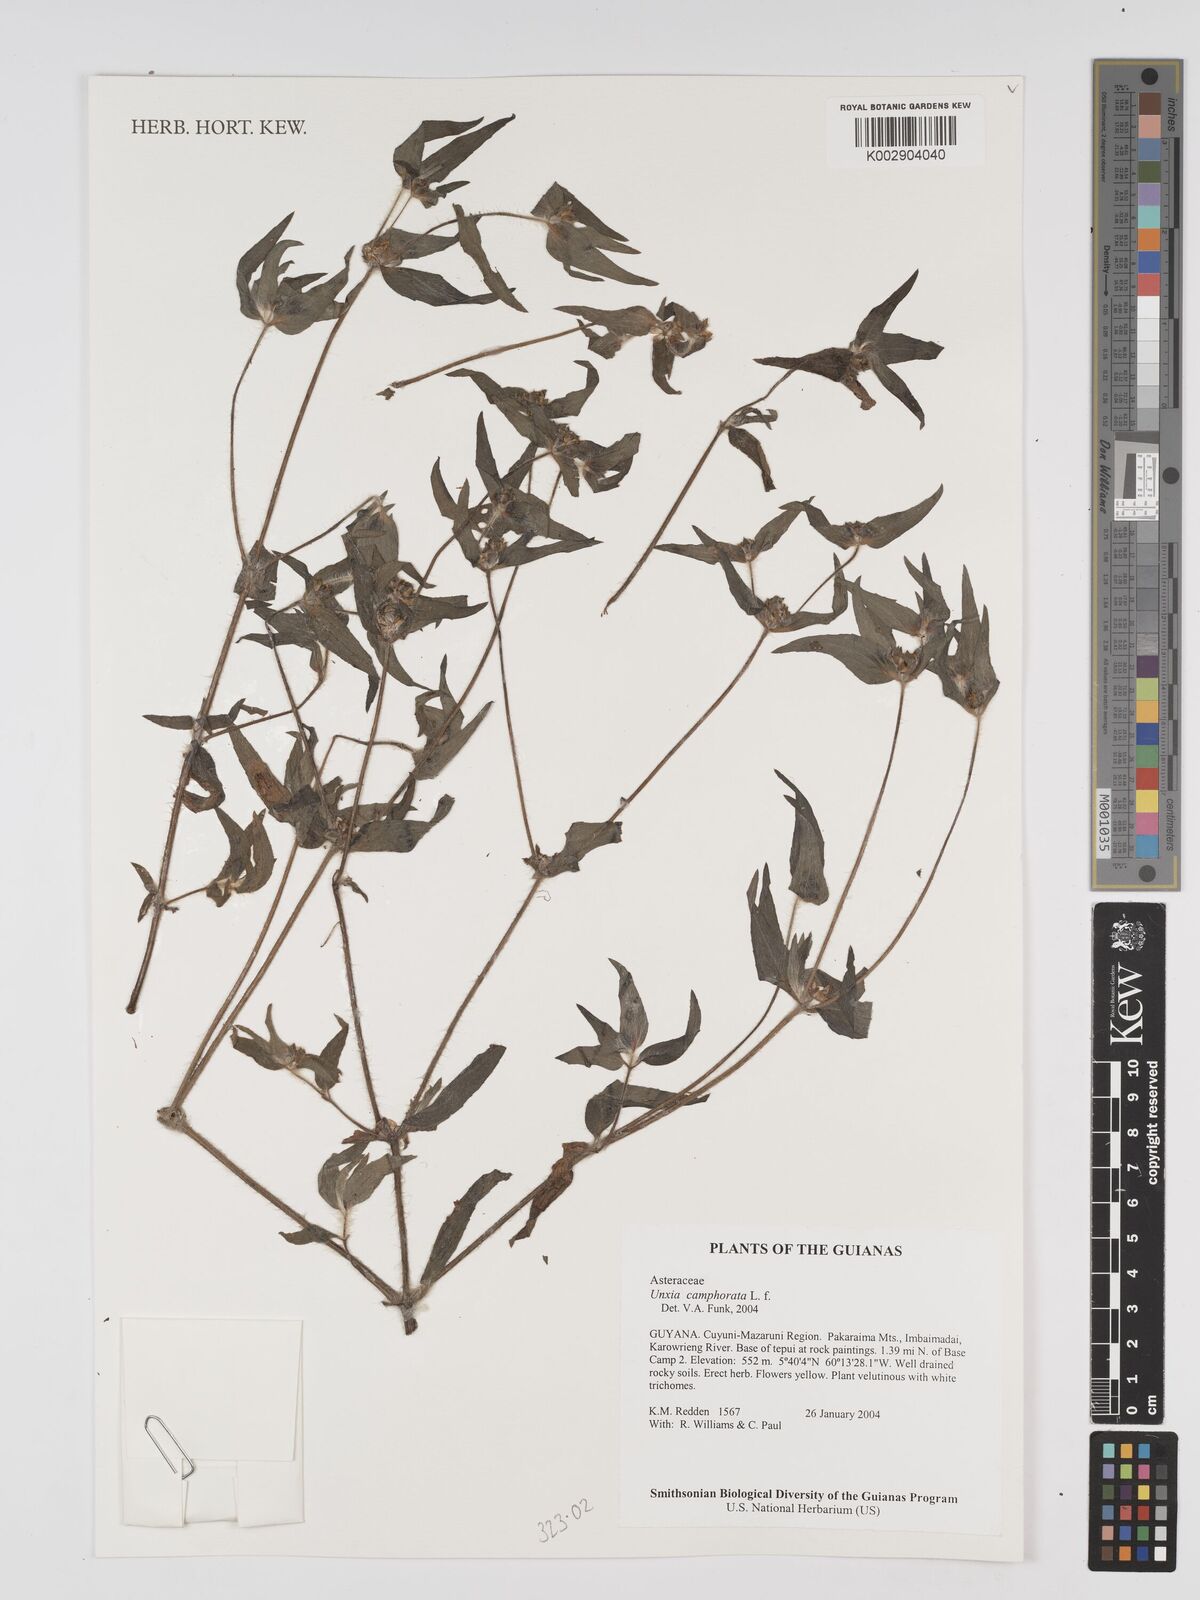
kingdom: Plantae
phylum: Tracheophyta
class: Magnoliopsida
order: Asterales
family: Asteraceae
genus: Unxia
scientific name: Unxia camphorata
